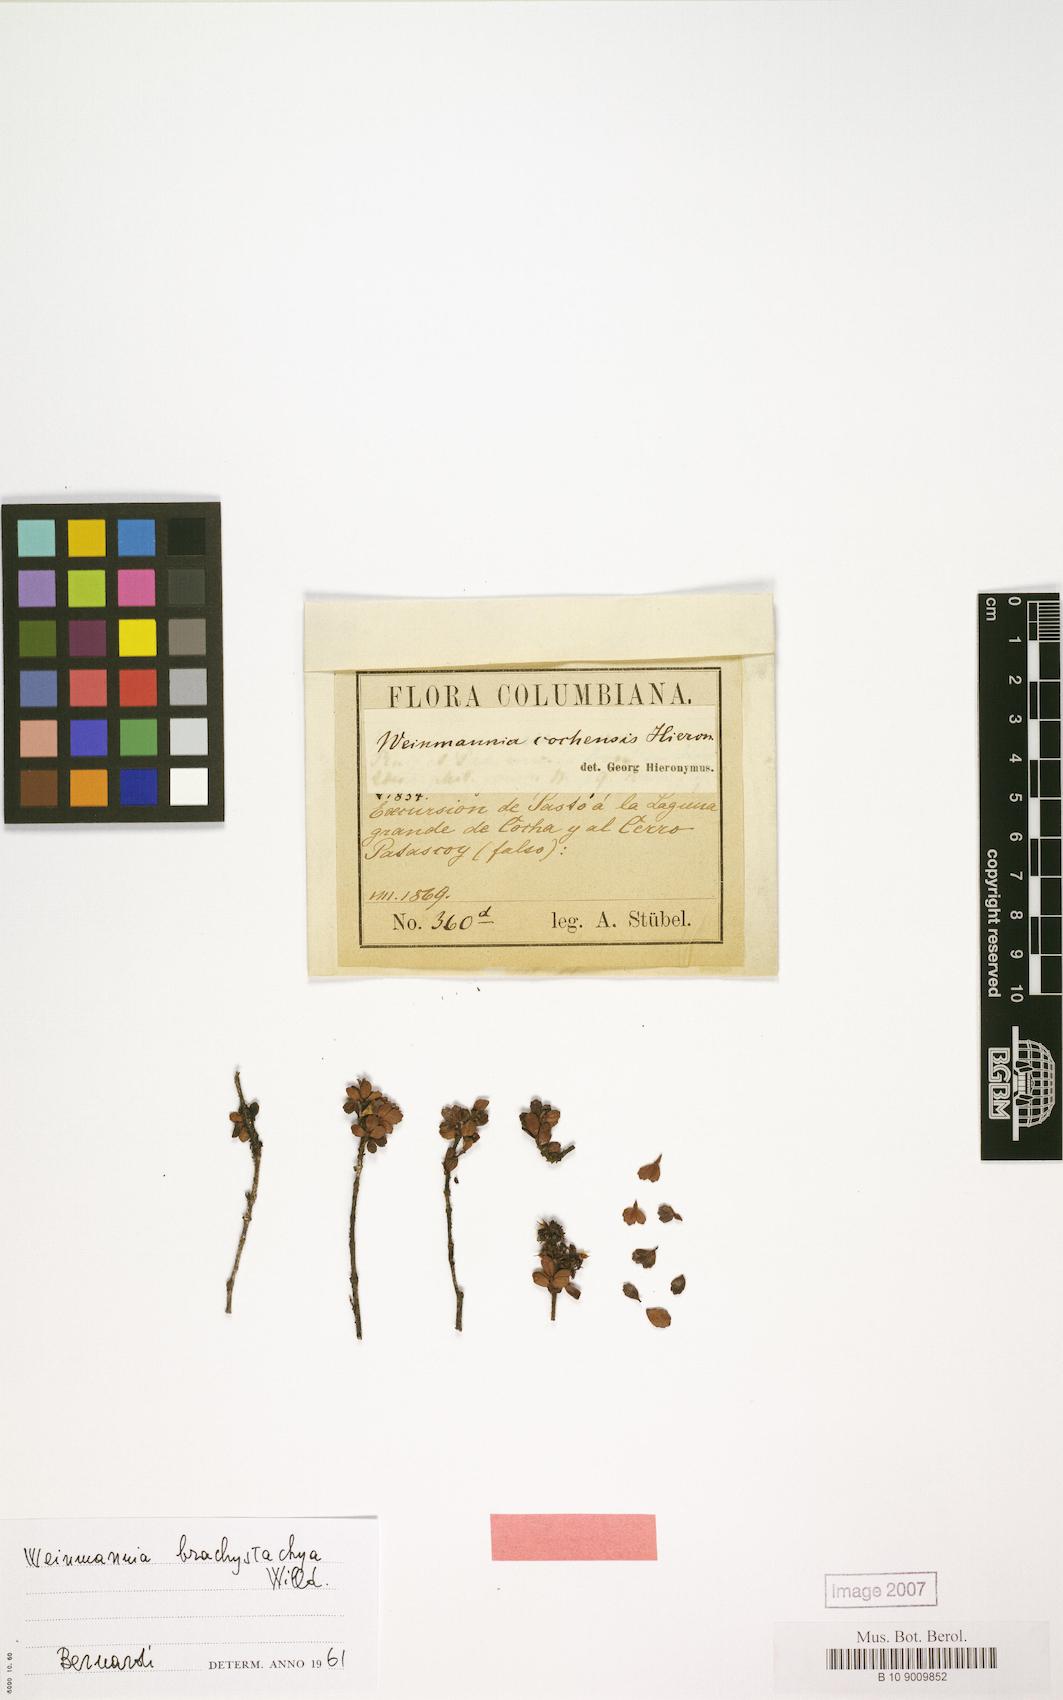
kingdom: Plantae
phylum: Tracheophyta
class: Magnoliopsida
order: Oxalidales
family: Cunoniaceae
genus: Weinmannia
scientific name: Weinmannia cochensis
